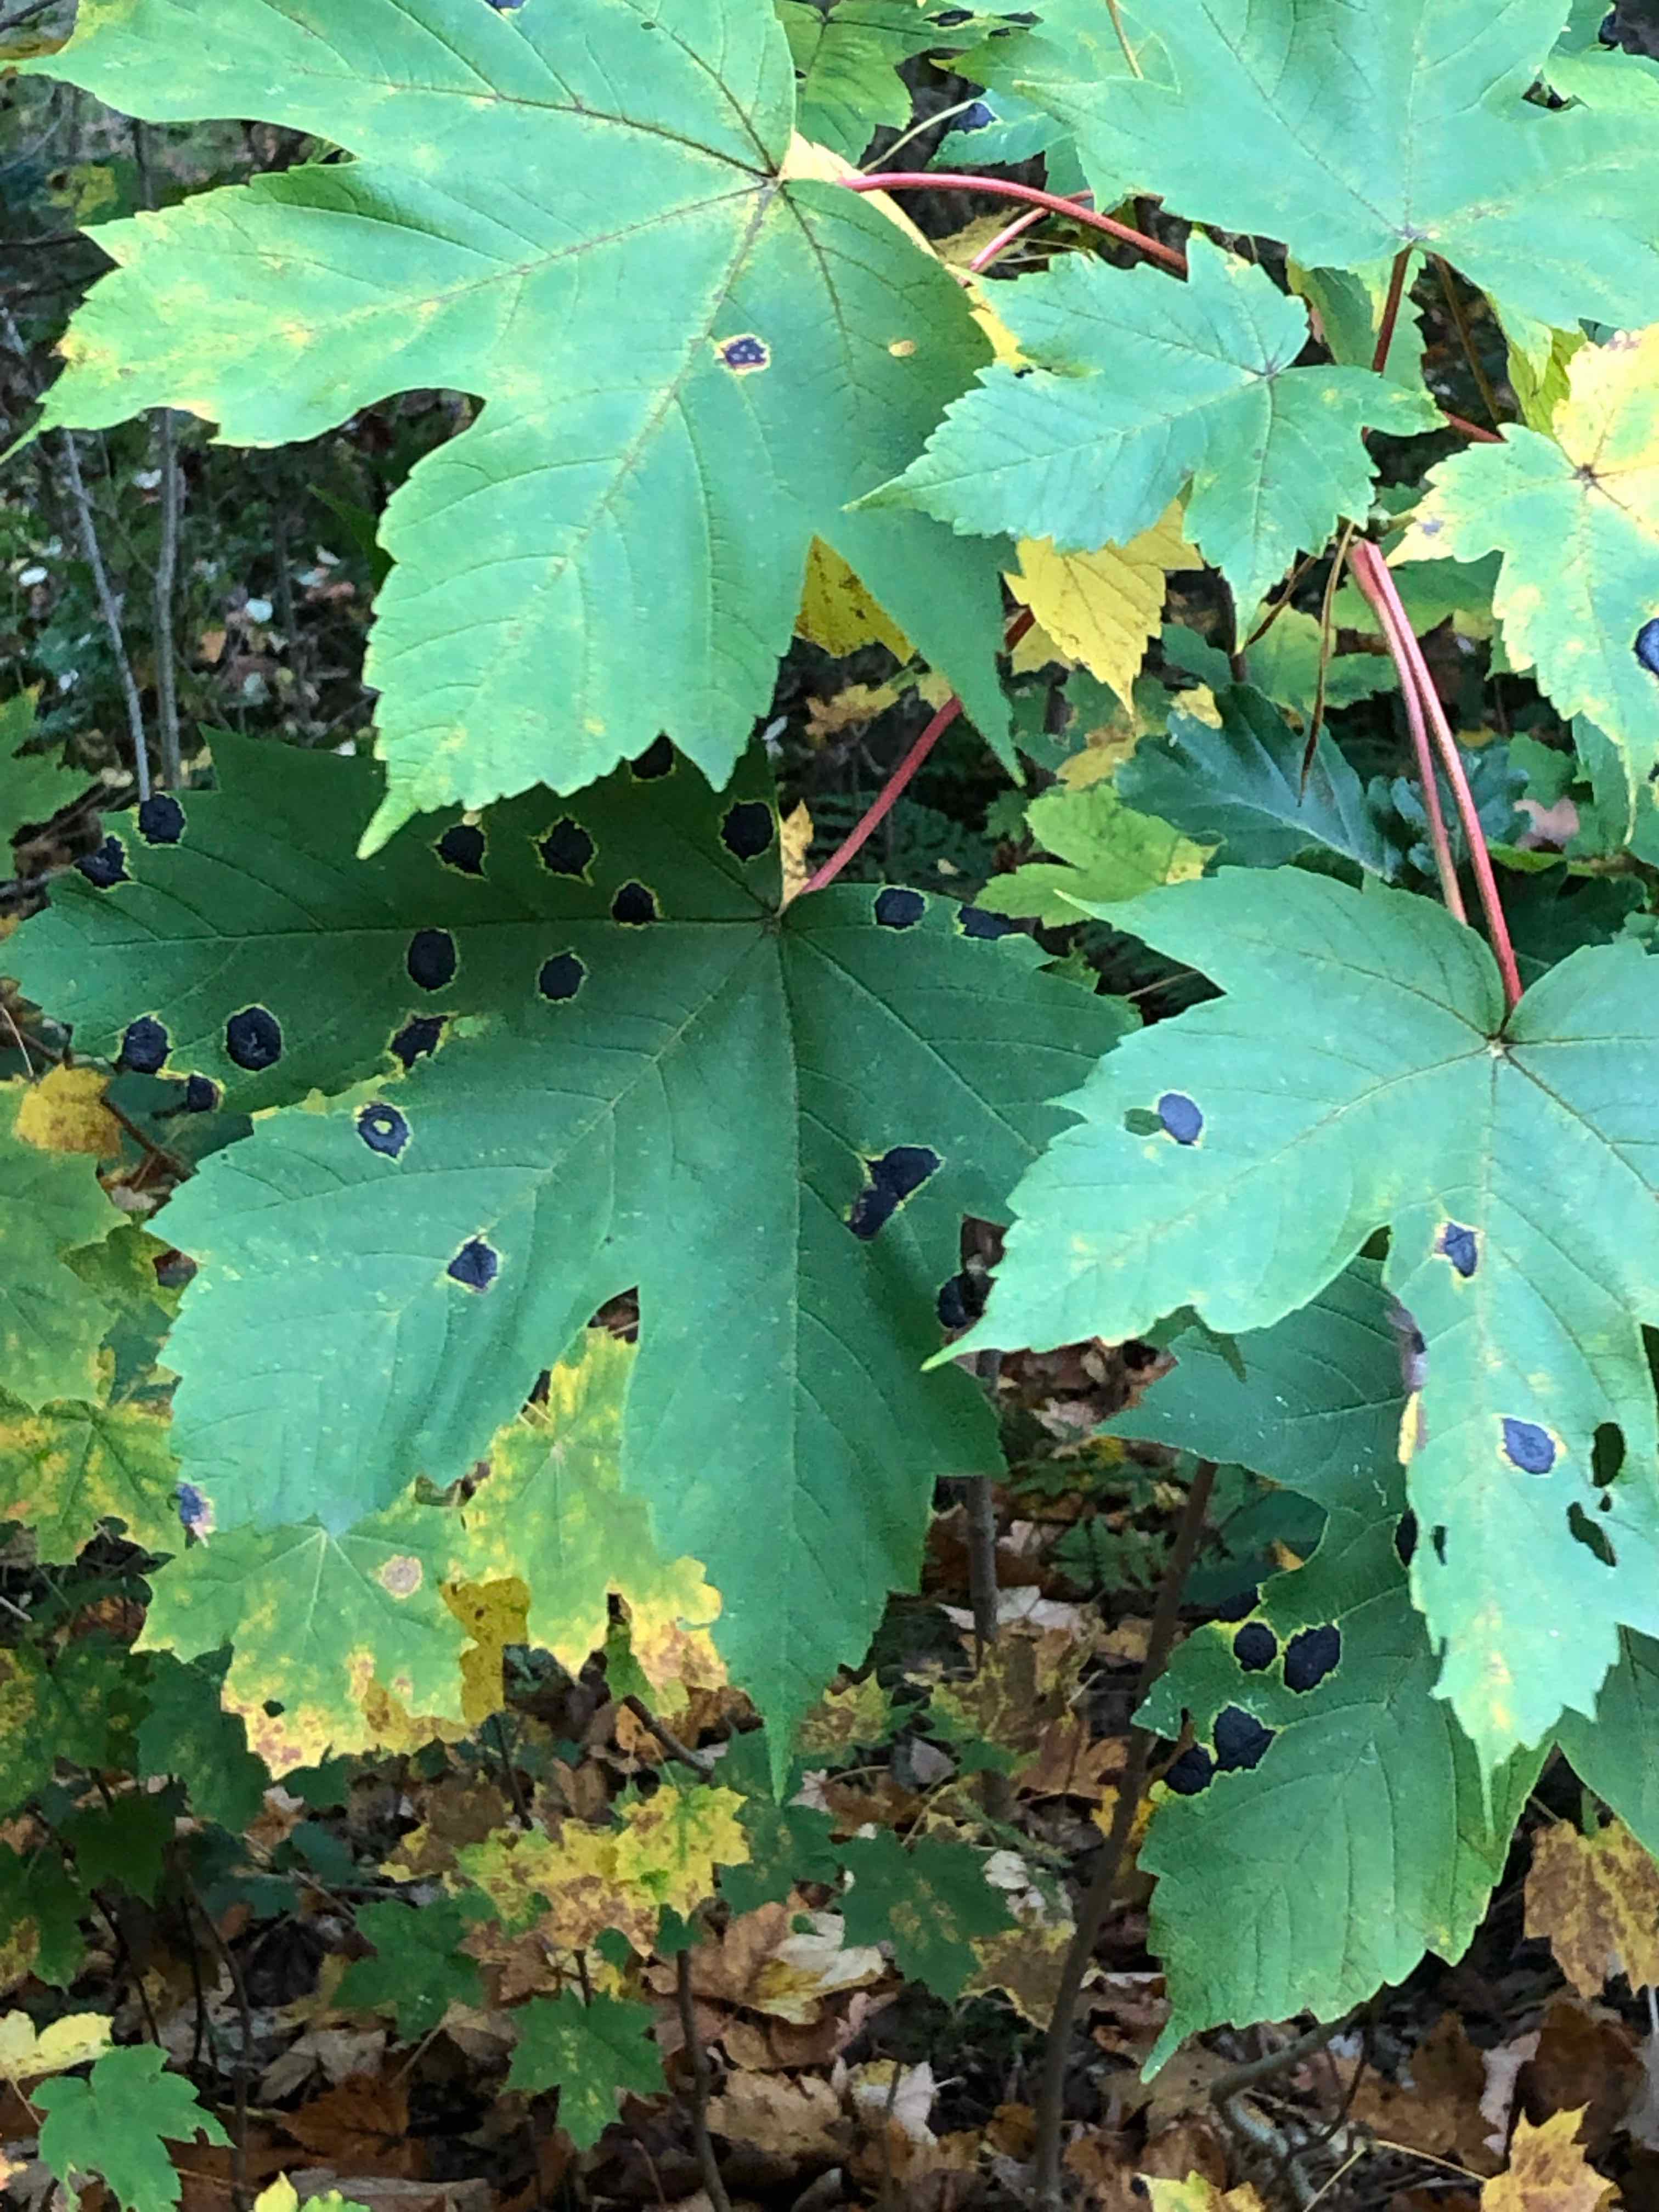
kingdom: Fungi
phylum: Ascomycota
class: Leotiomycetes
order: Rhytismatales
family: Rhytismataceae
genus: Rhytisma
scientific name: Rhytisma acerinum
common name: ahorn-rynkeplet
